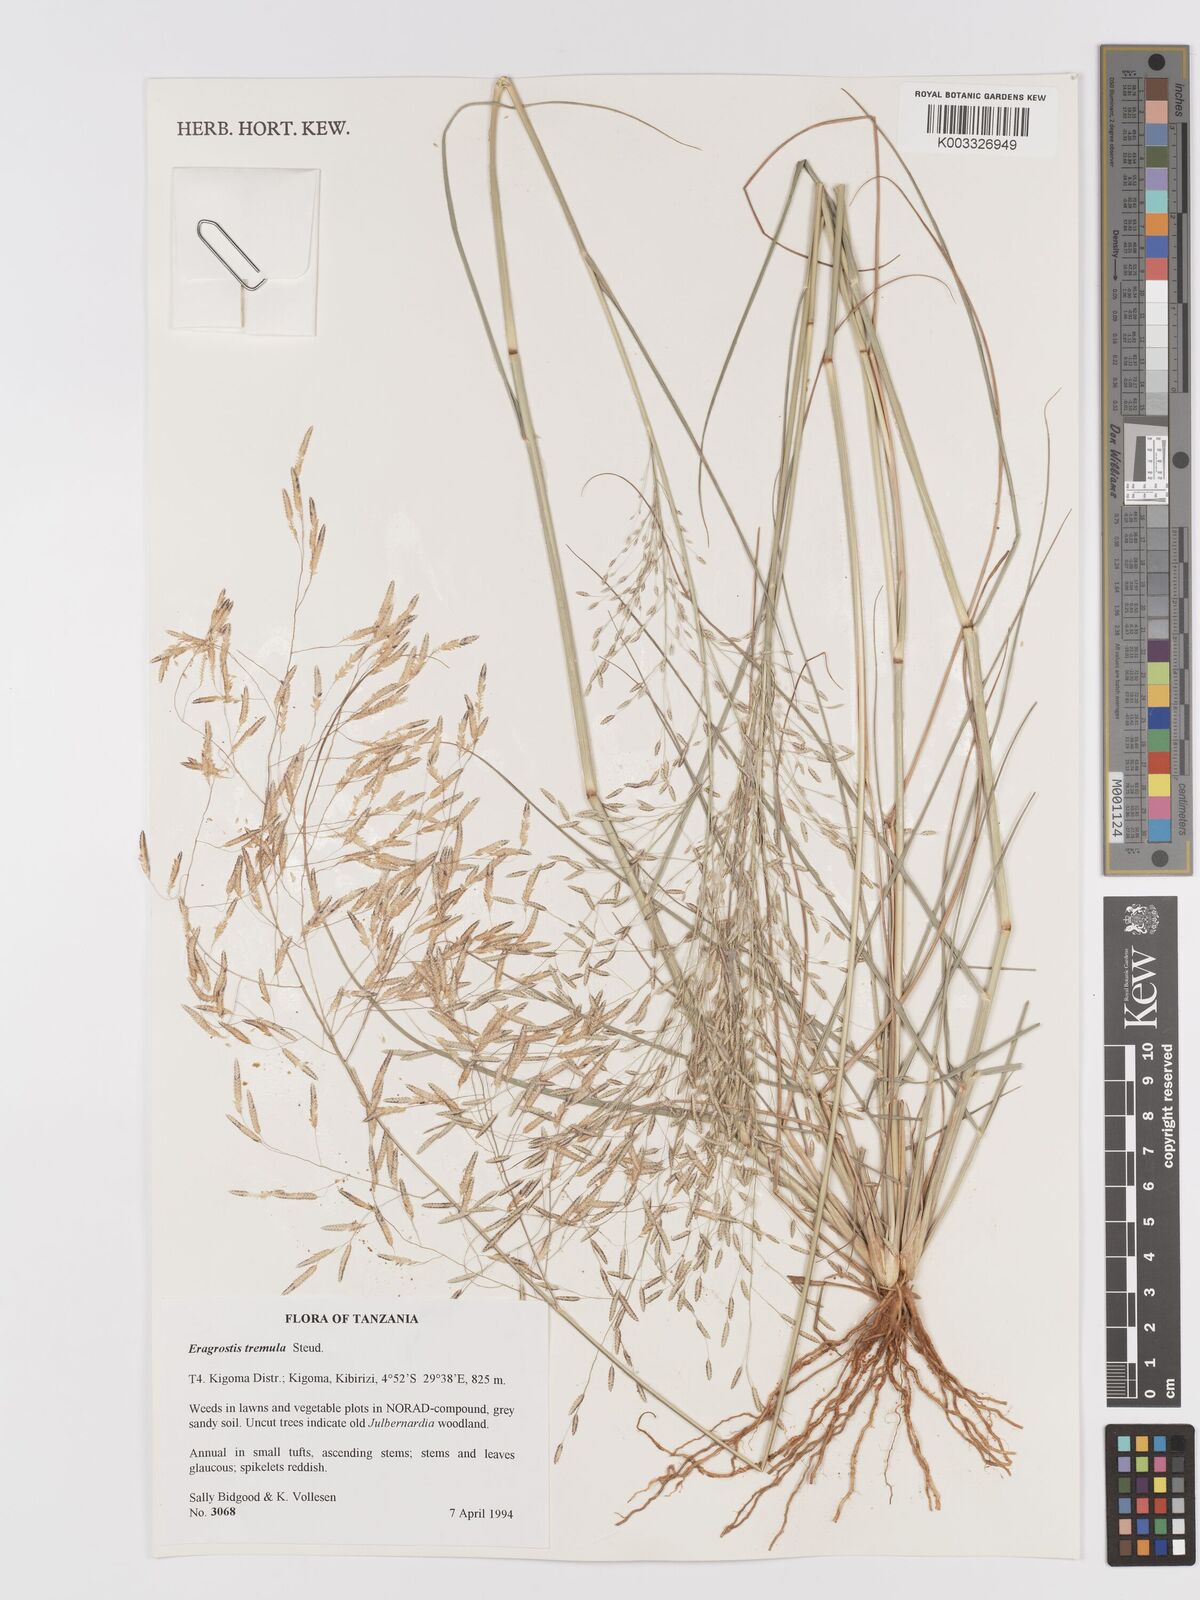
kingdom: Plantae
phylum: Tracheophyta
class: Liliopsida
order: Poales
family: Poaceae
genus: Eragrostis
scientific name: Eragrostis tremula
